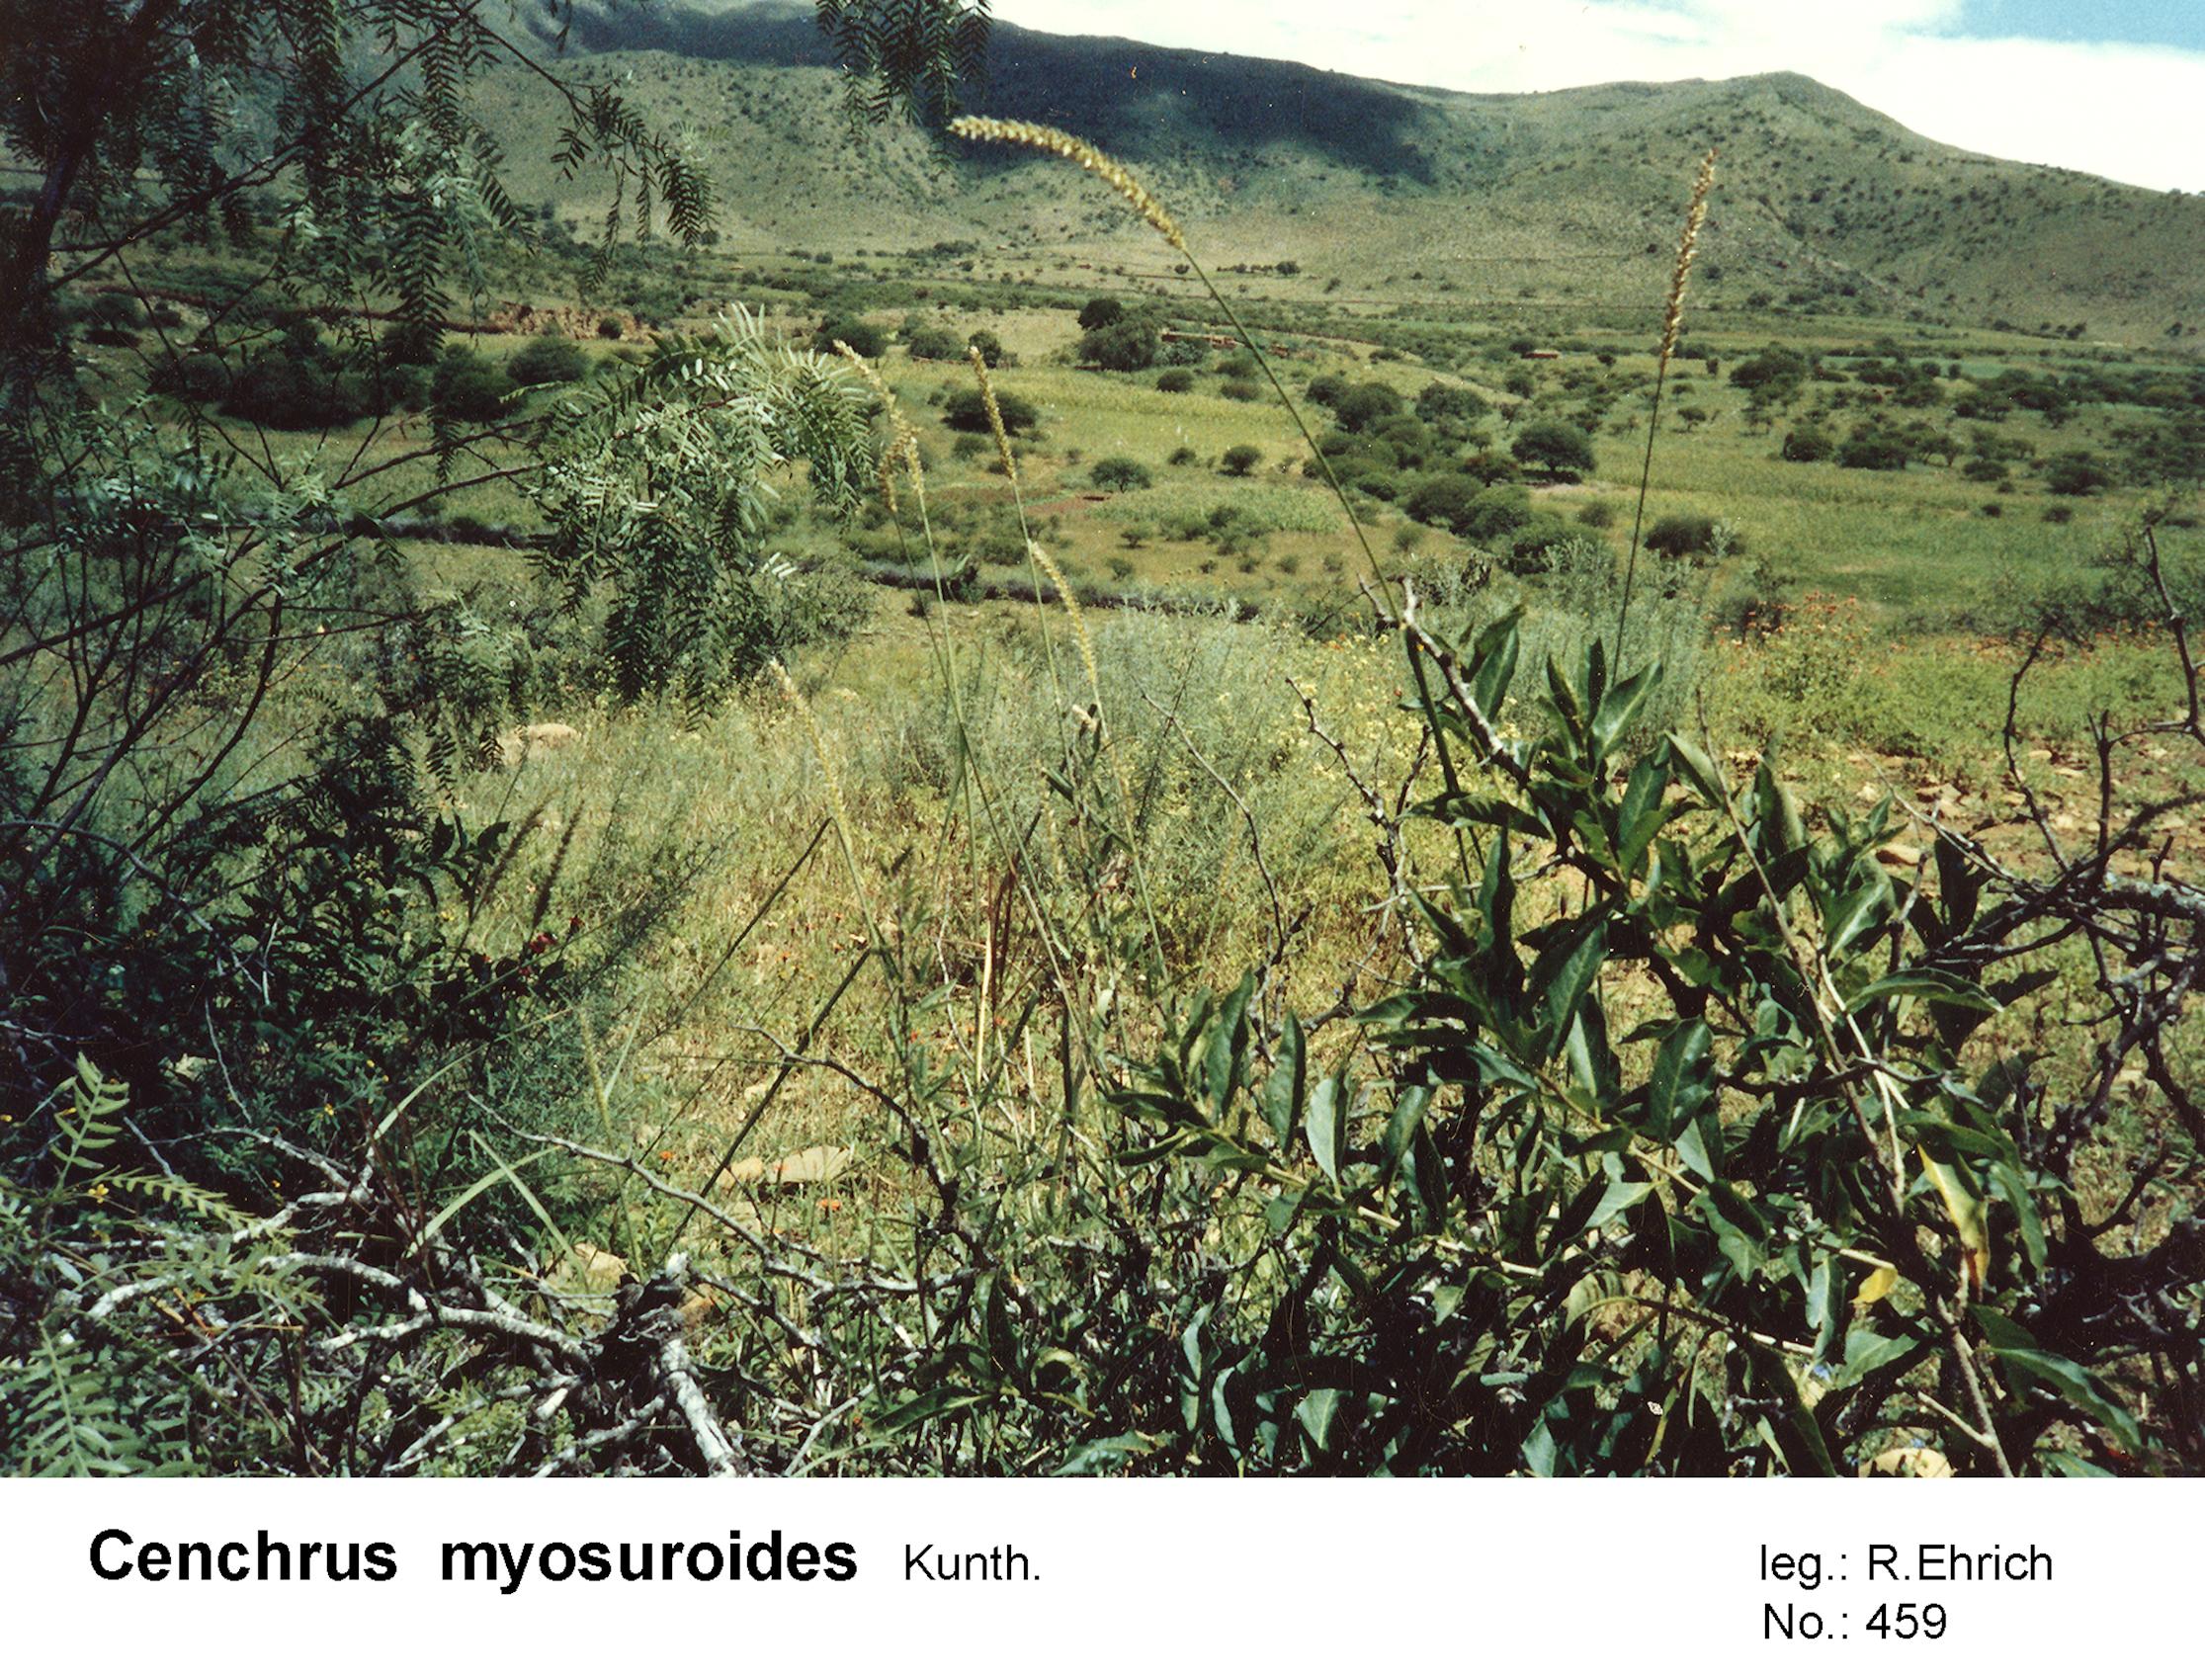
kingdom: Plantae
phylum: Tracheophyta
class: Liliopsida
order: Poales
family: Poaceae
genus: Cenchrus
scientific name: Cenchrus myosuroides
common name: Big sandbur
